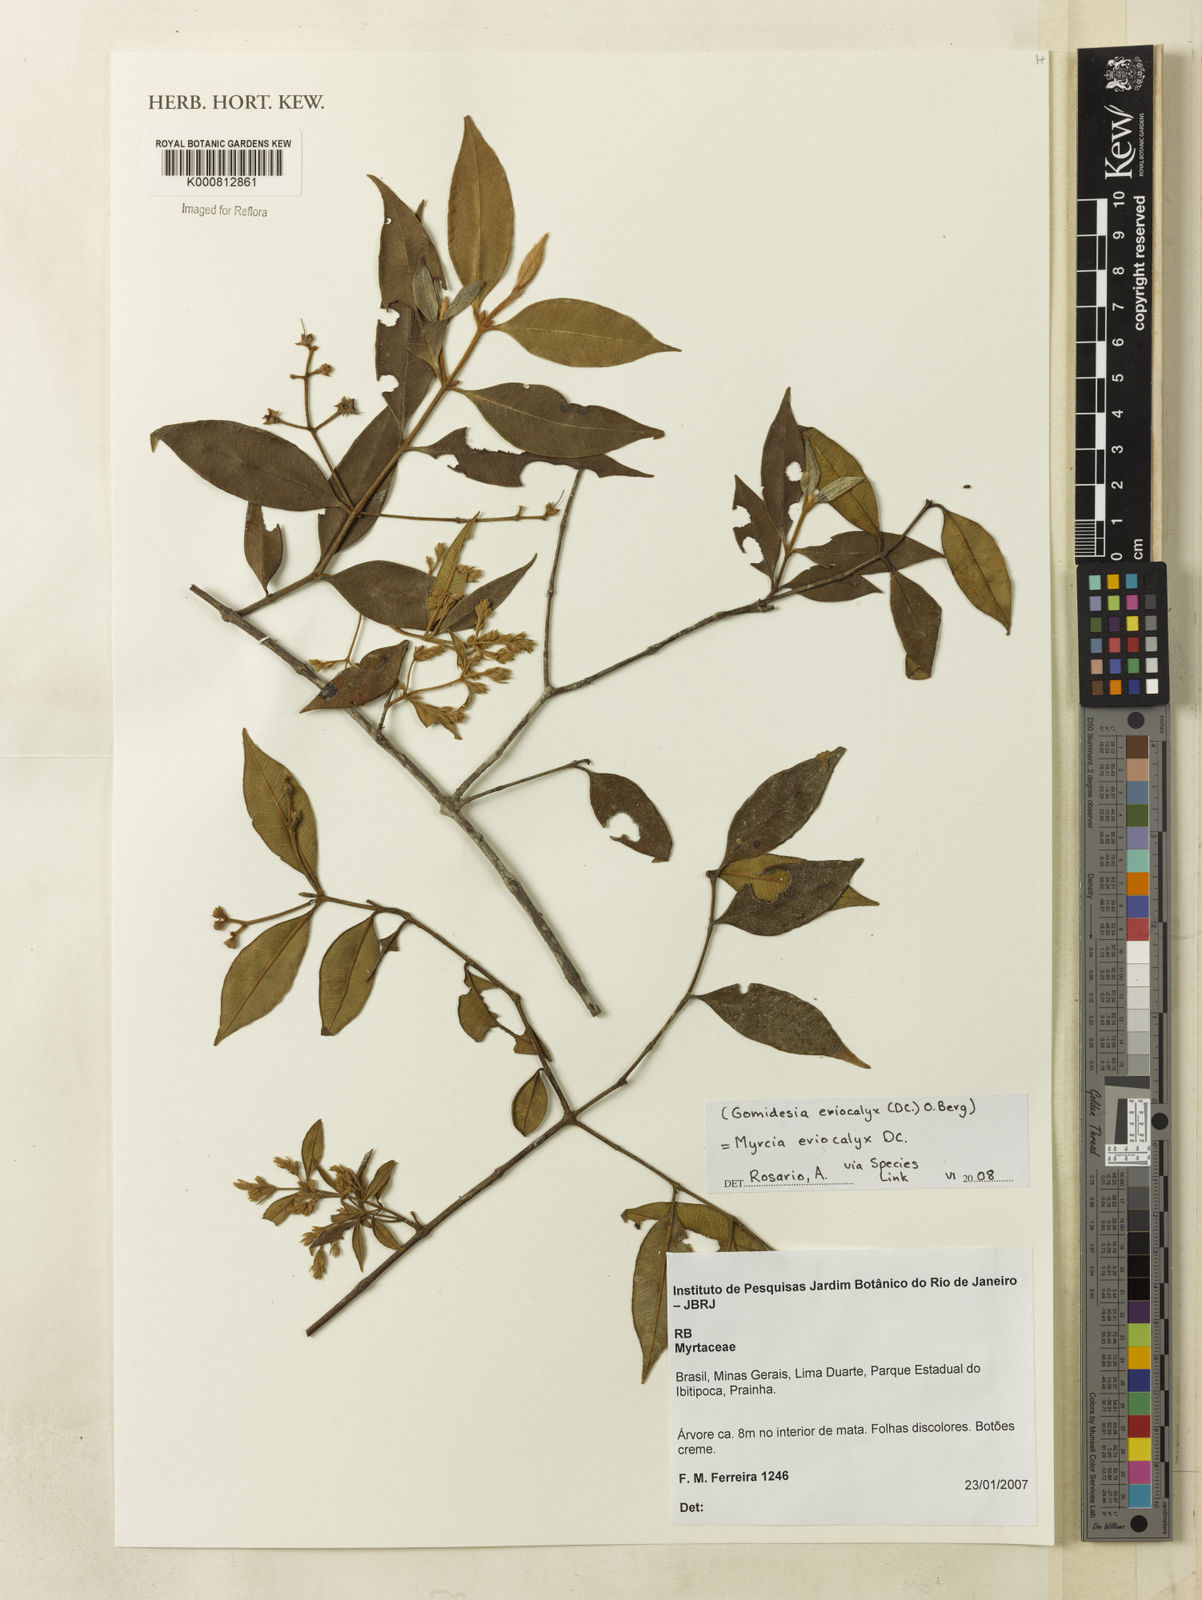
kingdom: Plantae
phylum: Tracheophyta
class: Magnoliopsida
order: Myrtales
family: Myrtaceae
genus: Myrcia
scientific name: Myrcia eriocalyx
